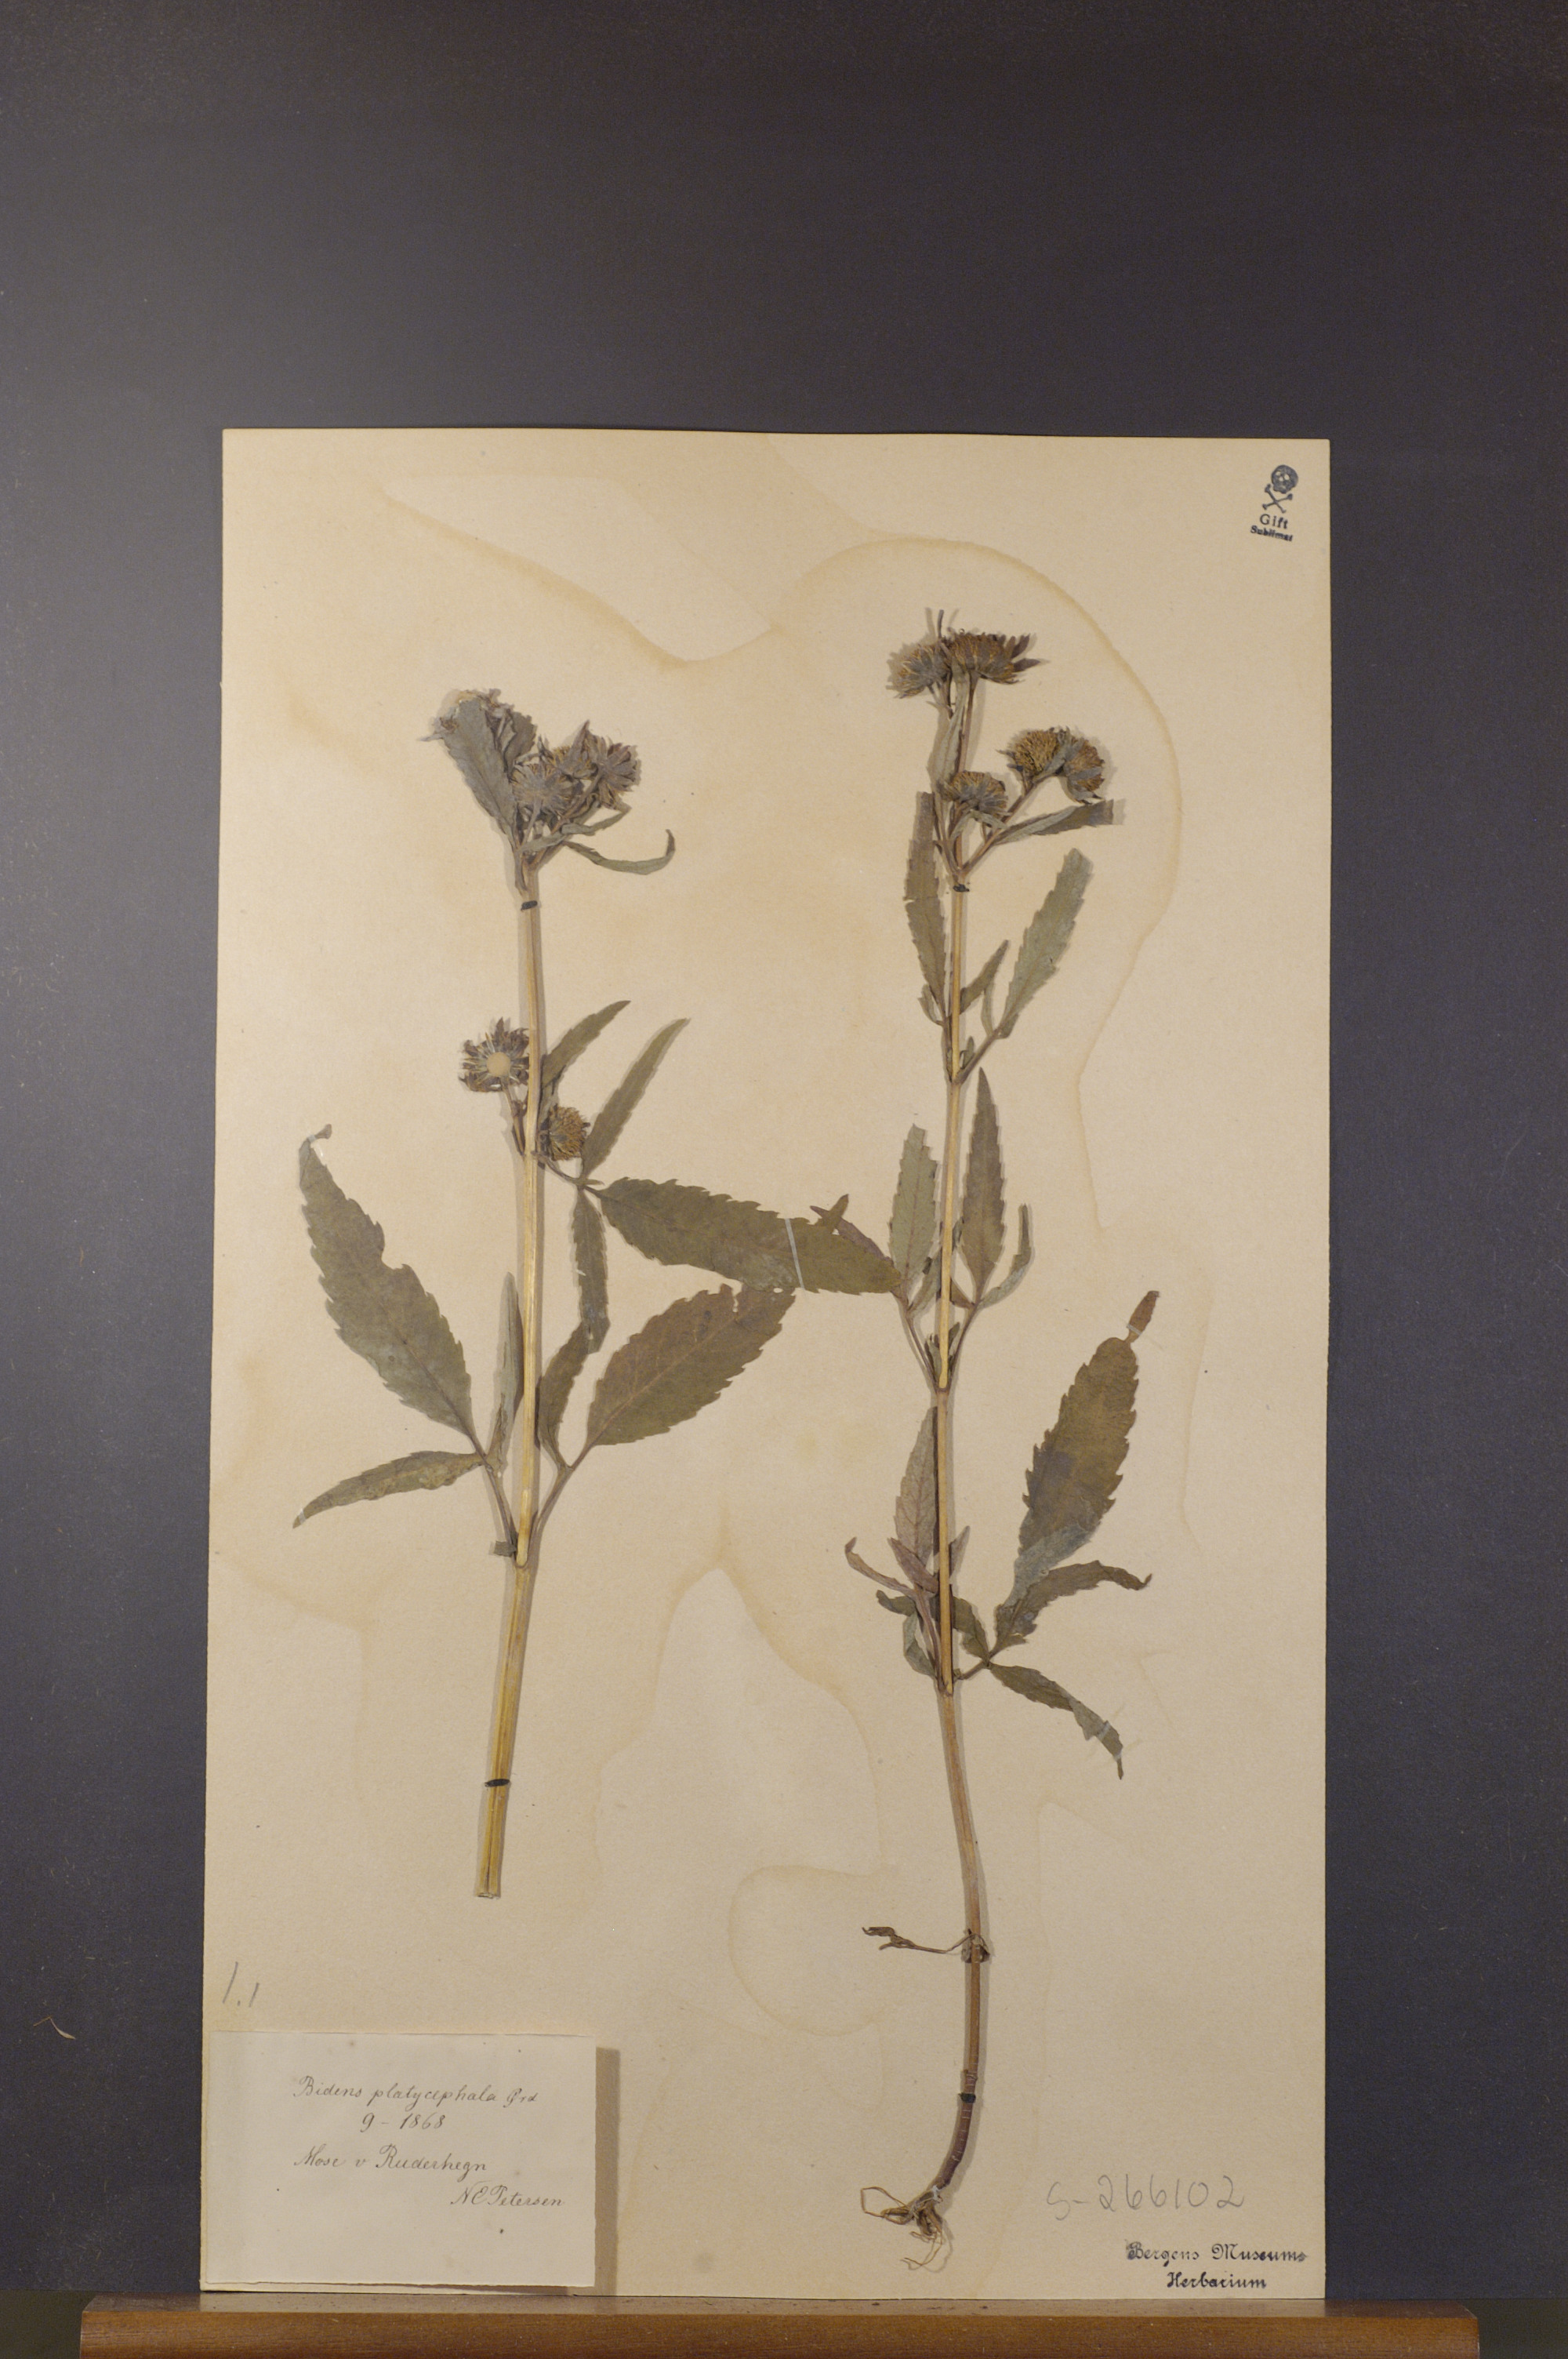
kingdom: Plantae
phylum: Tracheophyta
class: Magnoliopsida
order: Asterales
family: Asteraceae
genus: Bidens
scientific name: Bidens radiata
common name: Radiating bur-marigold
